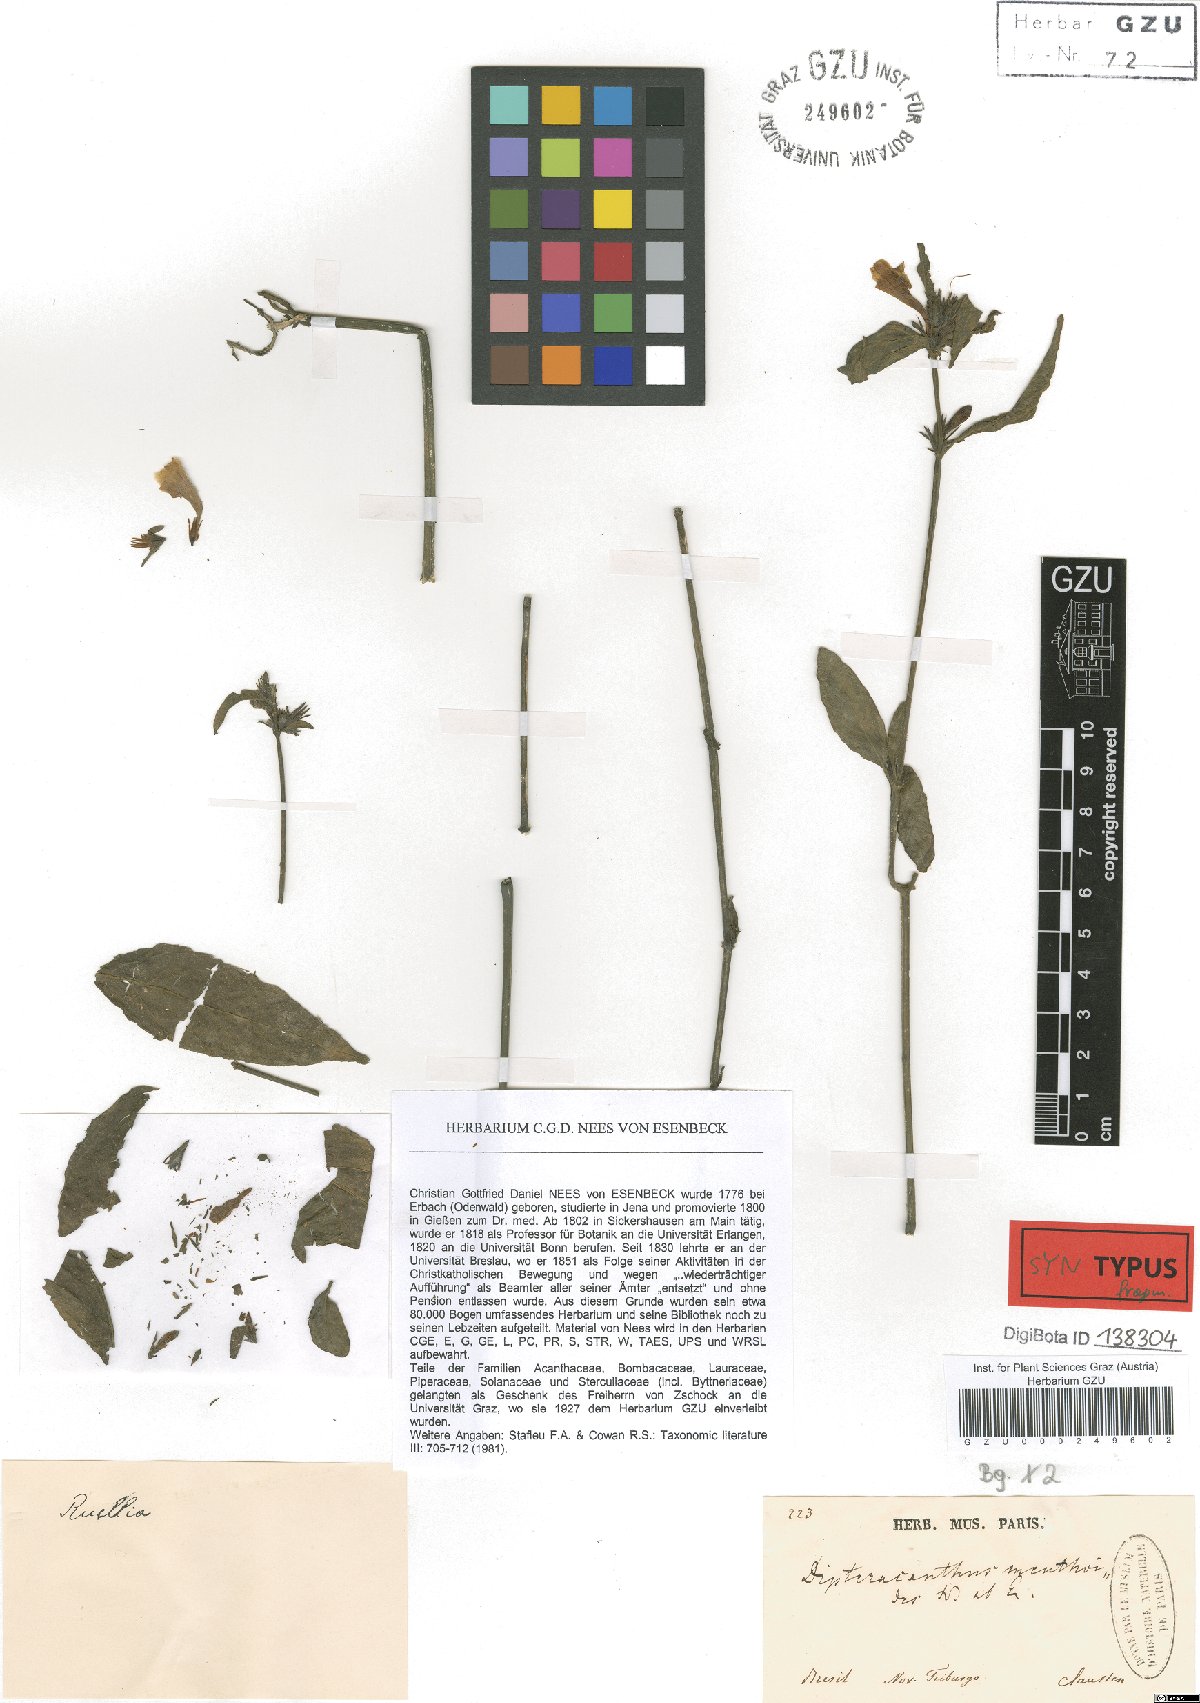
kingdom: Plantae
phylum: Tracheophyta
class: Magnoliopsida
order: Lamiales
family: Acanthaceae
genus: Ruellia
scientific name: Ruellia menthoides
